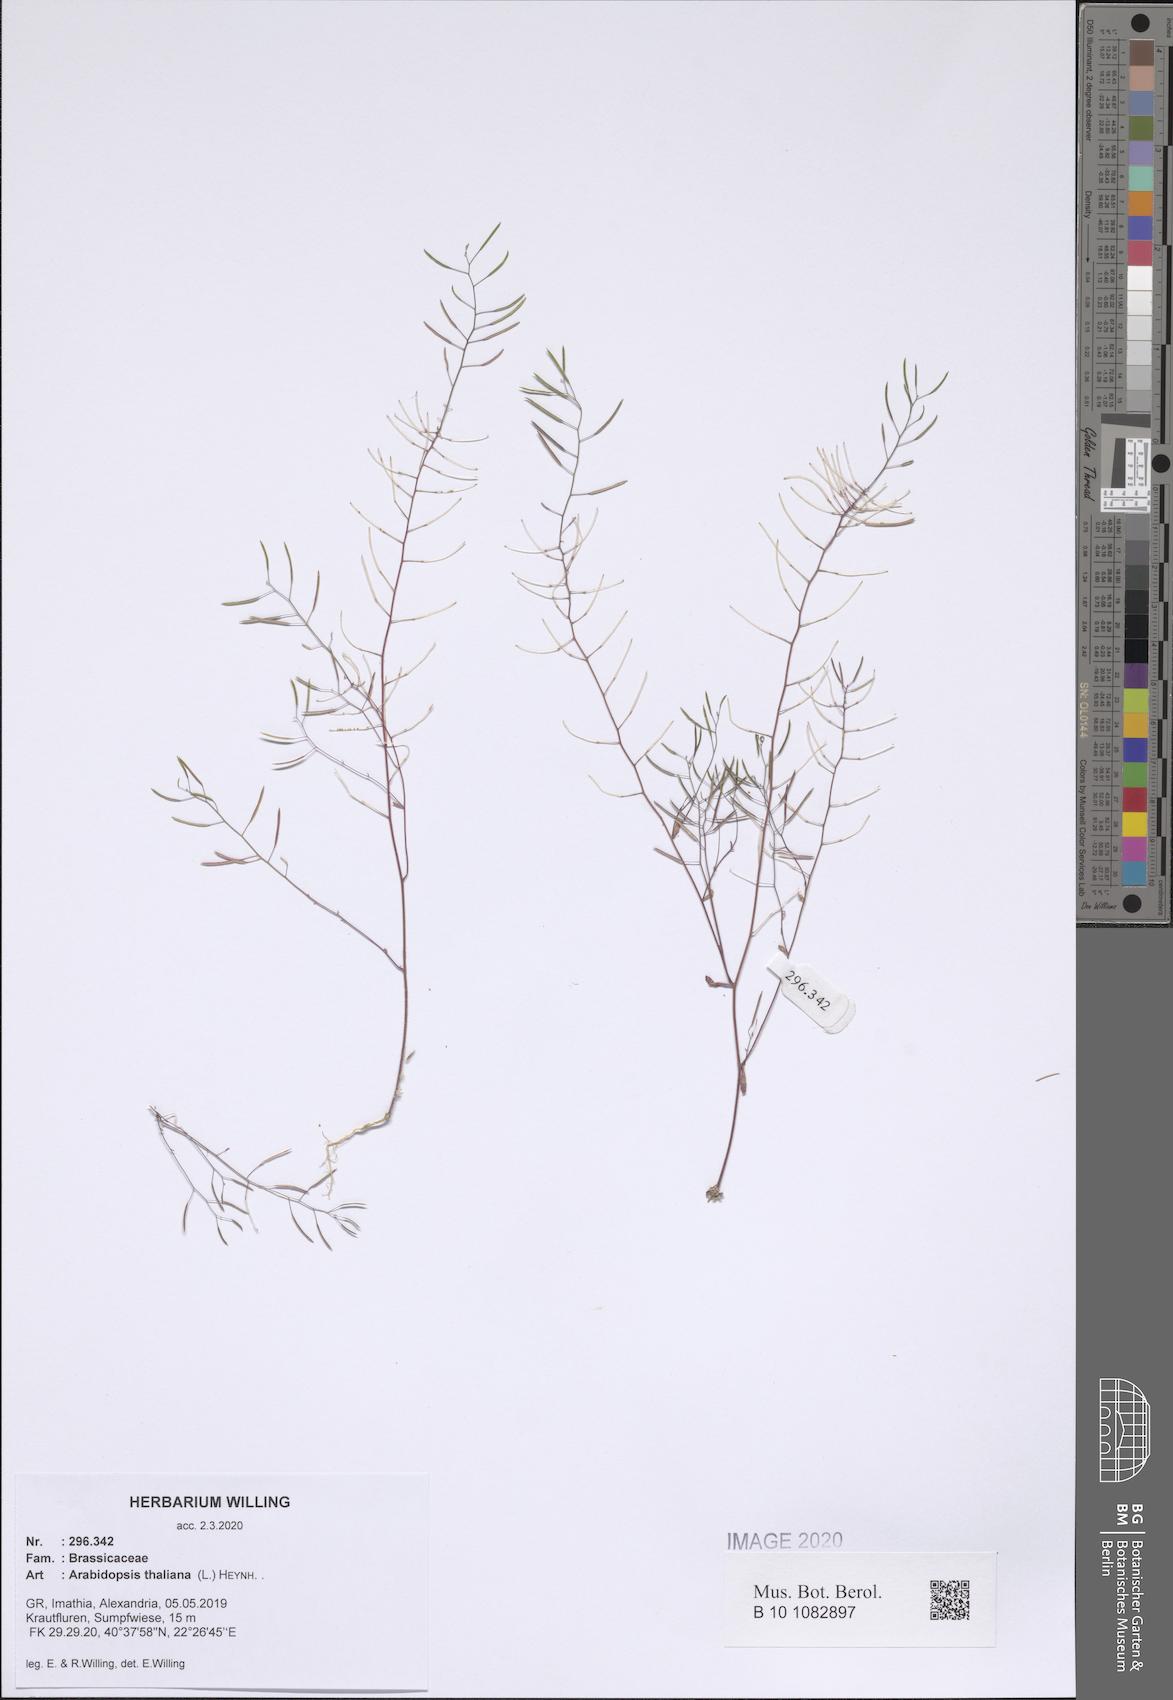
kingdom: Plantae
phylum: Tracheophyta
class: Magnoliopsida
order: Brassicales
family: Brassicaceae
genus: Arabidopsis
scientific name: Arabidopsis thaliana
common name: Thale cress
